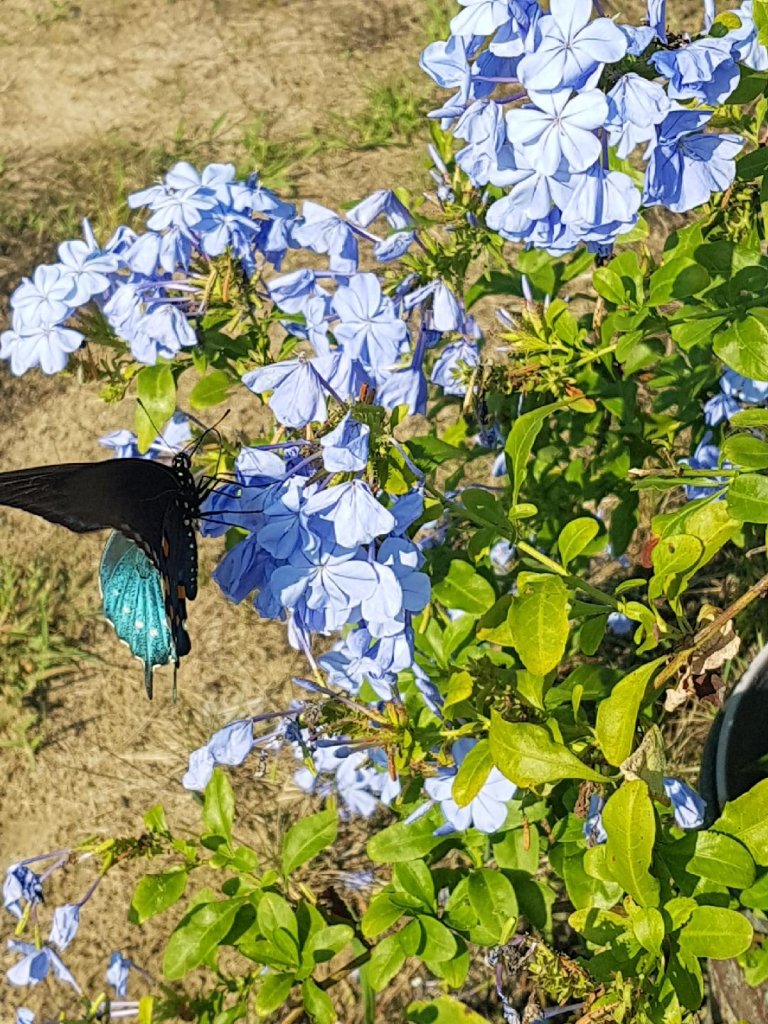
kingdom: Animalia
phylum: Arthropoda
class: Insecta
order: Lepidoptera
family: Papilionidae
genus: Battus
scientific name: Battus philenor
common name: Pipevine Swallowtail
